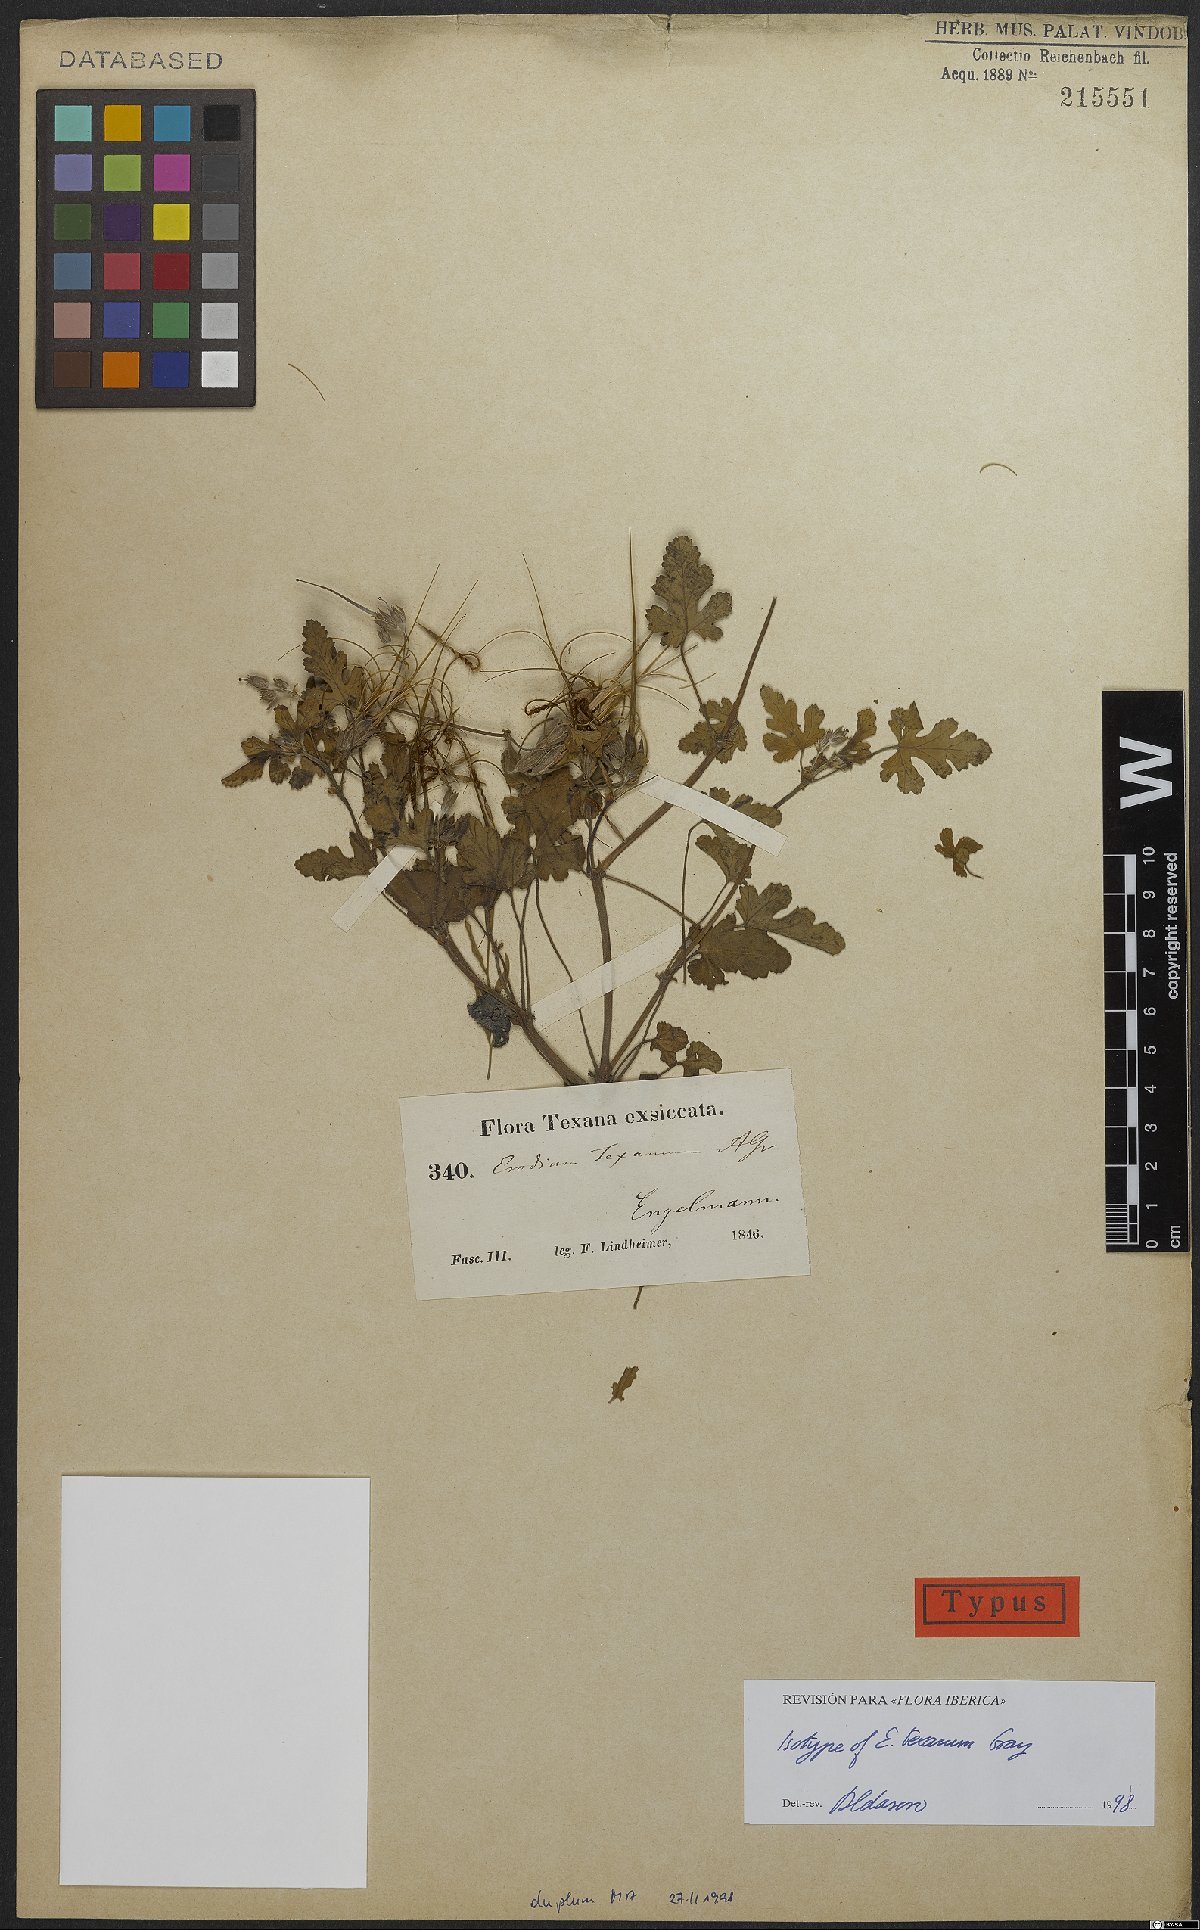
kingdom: Plantae
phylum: Tracheophyta
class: Magnoliopsida
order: Geraniales
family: Geraniaceae
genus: Erodium
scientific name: Erodium texanum
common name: Texas stork's-bill
